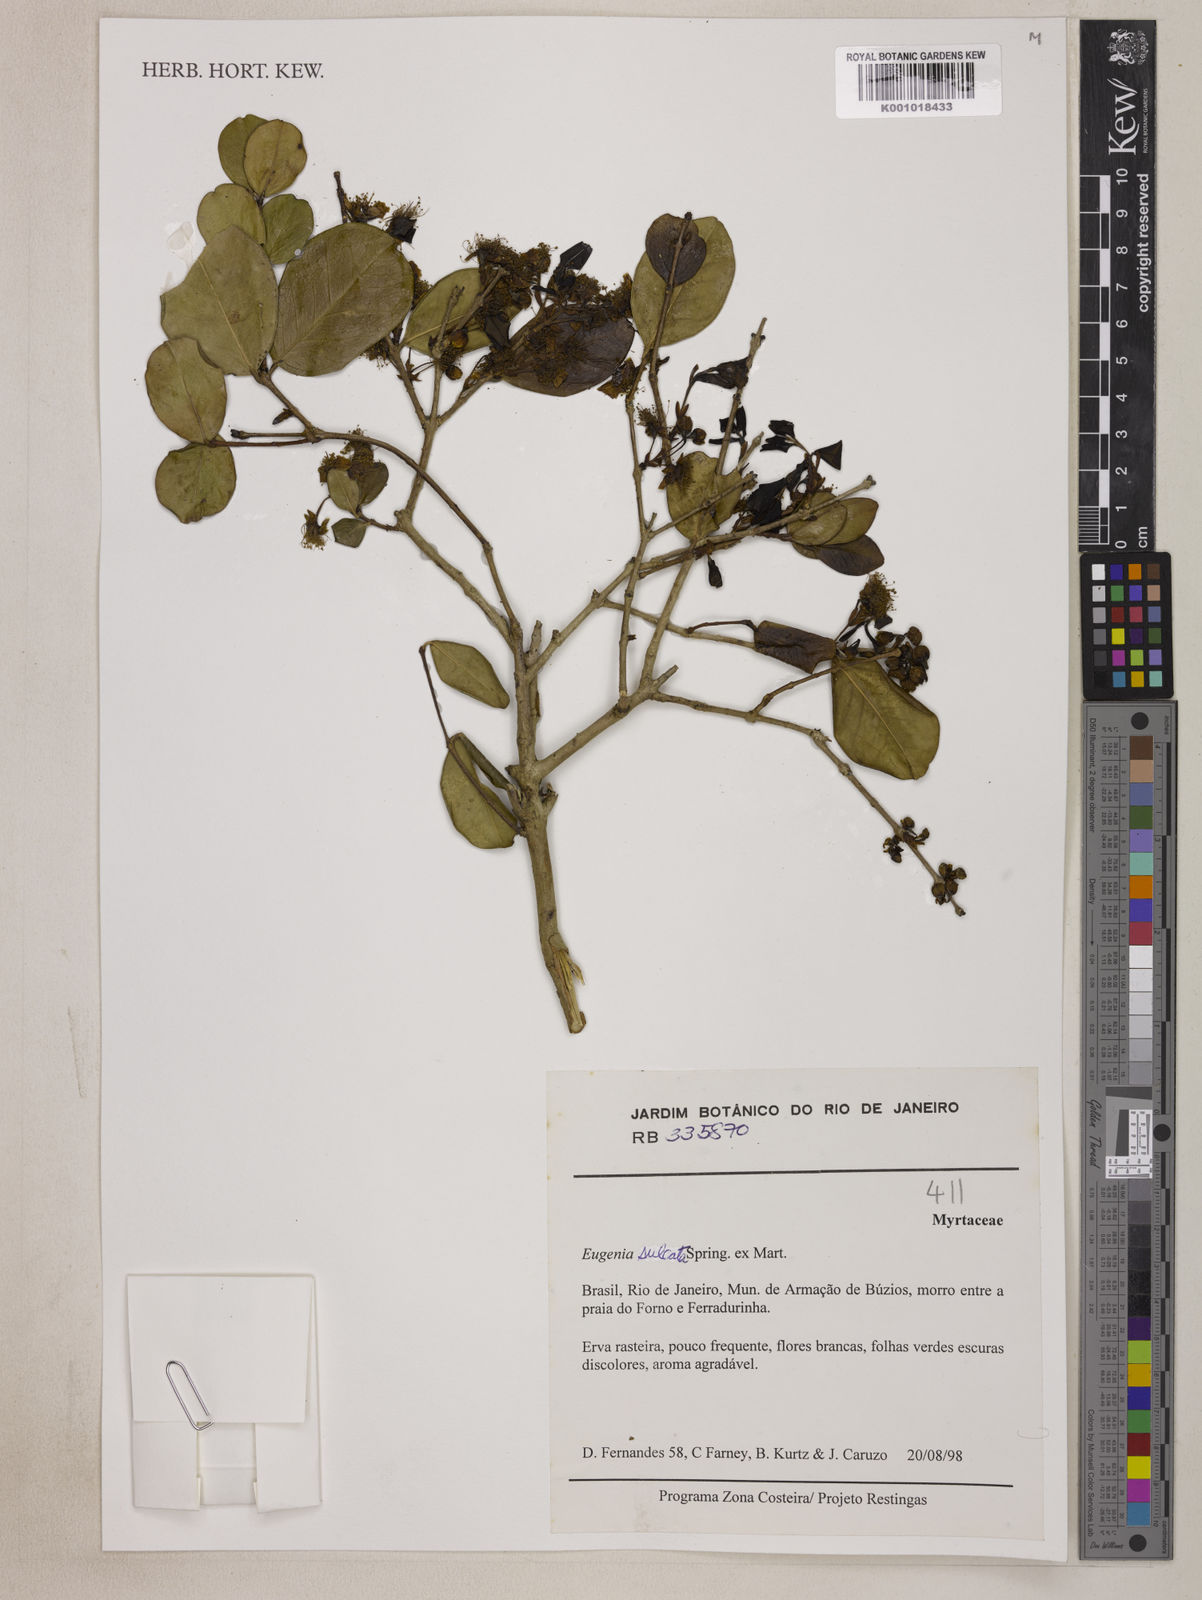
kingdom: Plantae
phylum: Tracheophyta
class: Magnoliopsida
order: Myrtales
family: Myrtaceae
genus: Eugenia
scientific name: Eugenia sulcata
